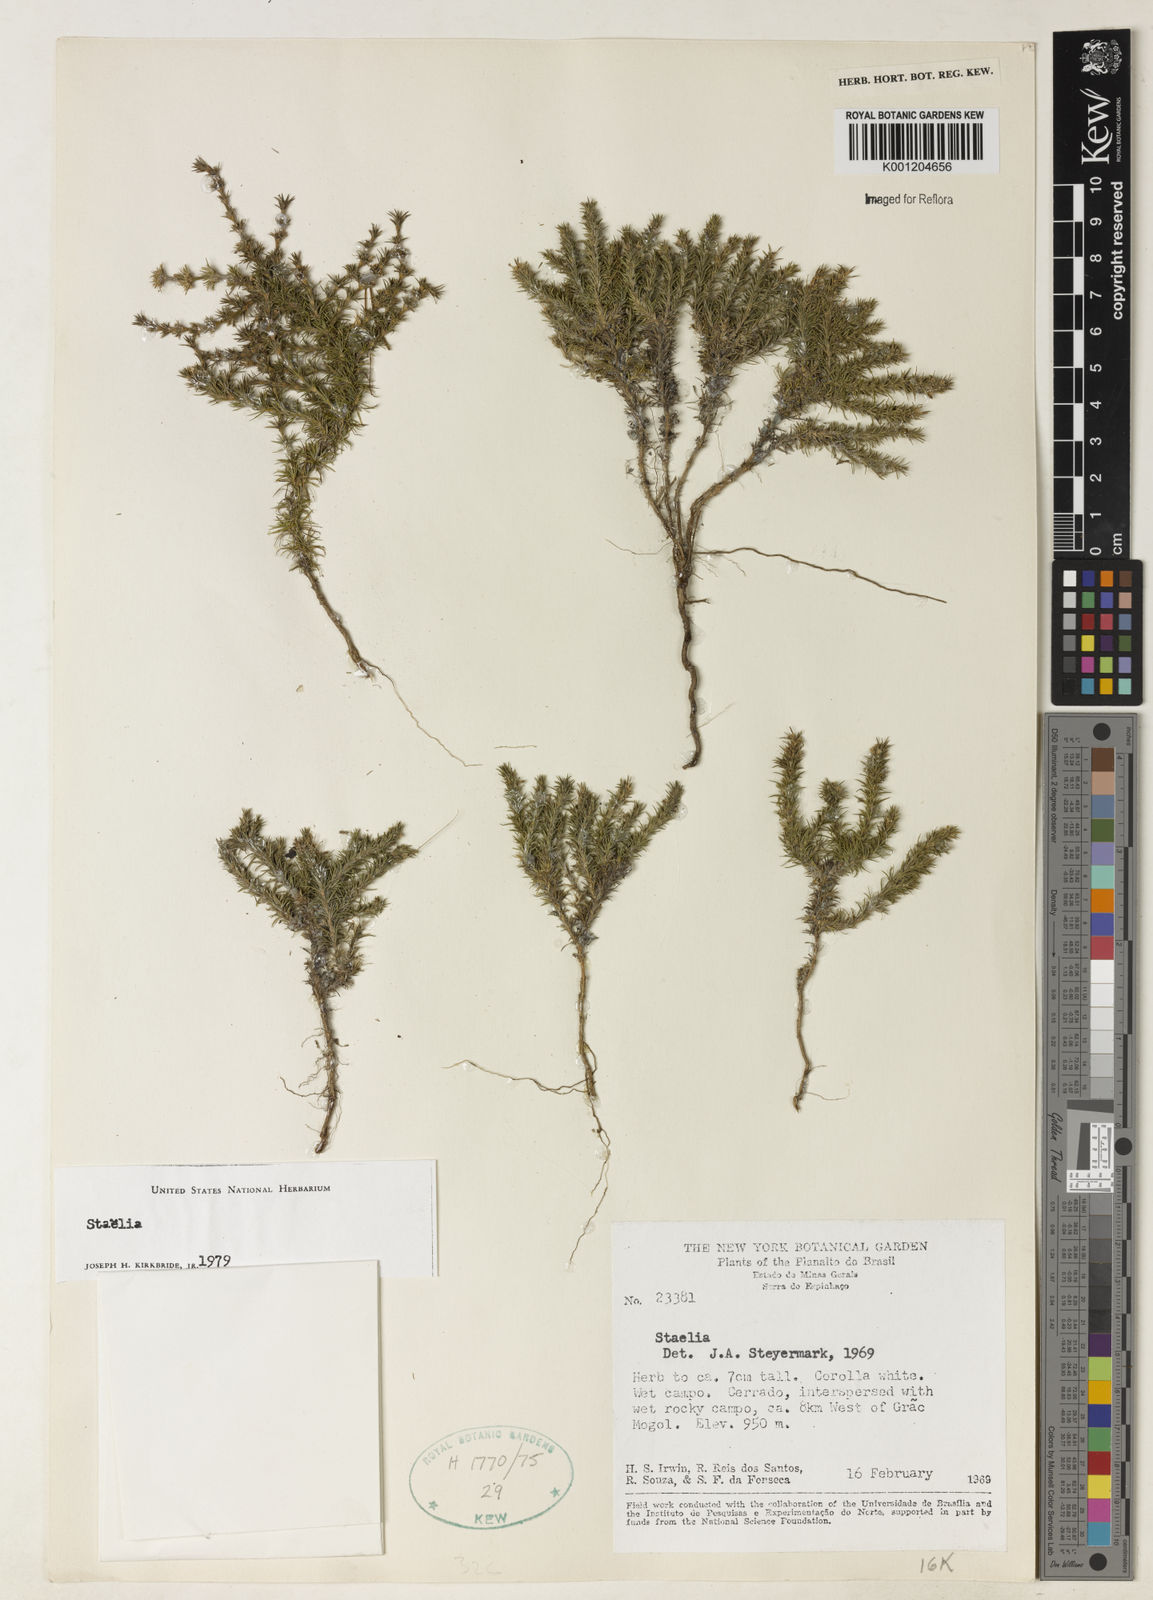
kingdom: Plantae
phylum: Tracheophyta
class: Magnoliopsida
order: Gentianales
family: Rubiaceae
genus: Staelia
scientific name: Staelia
